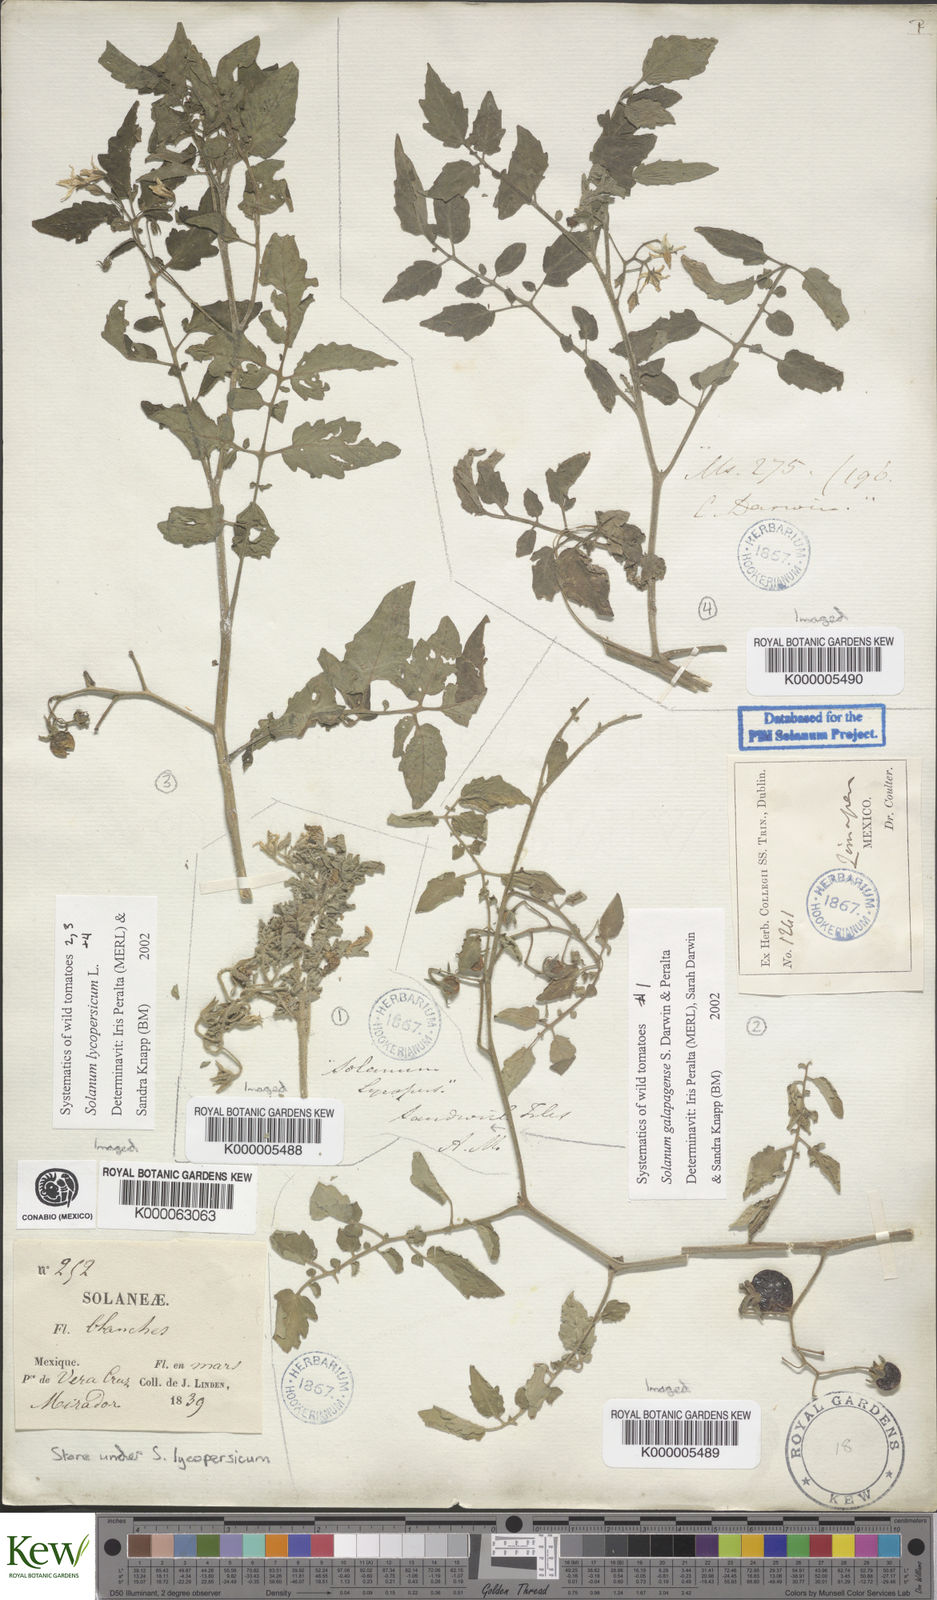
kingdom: Plantae
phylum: Tracheophyta
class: Magnoliopsida
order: Solanales
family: Solanaceae
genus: Solanum
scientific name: Solanum lycopersicum
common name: Garden tomato
